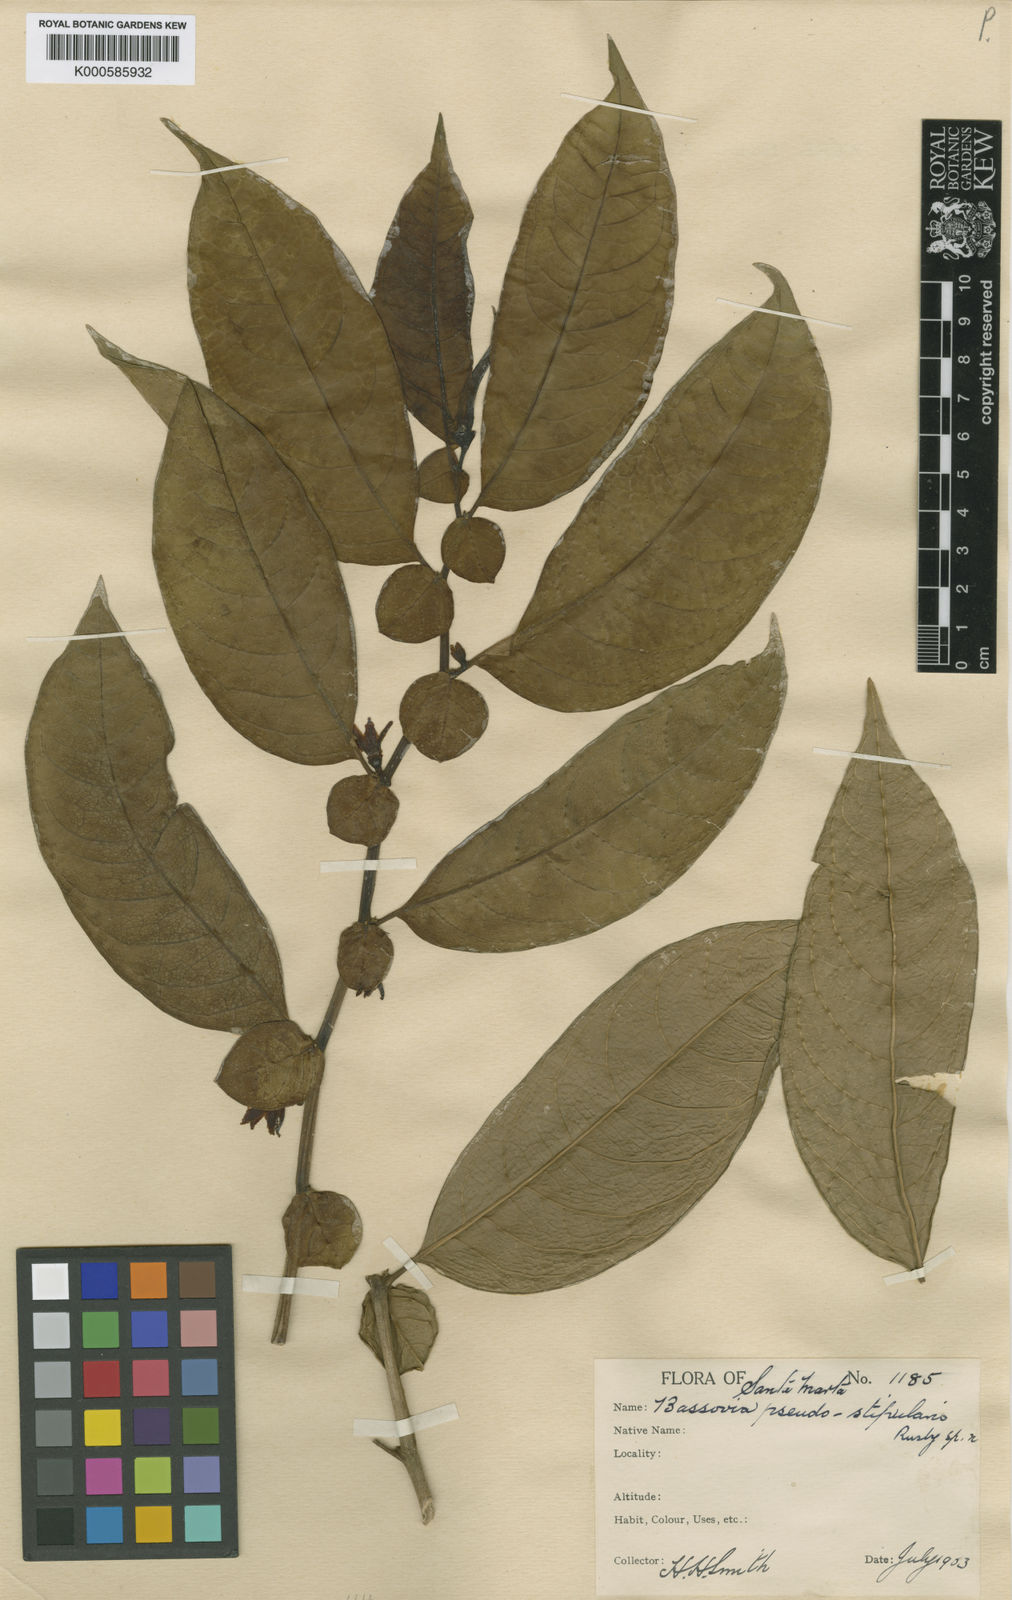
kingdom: Plantae
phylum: Tracheophyta
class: Magnoliopsida
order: Solanales
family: Solanaceae
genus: Iochroma
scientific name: Iochroma Acnistus spec
